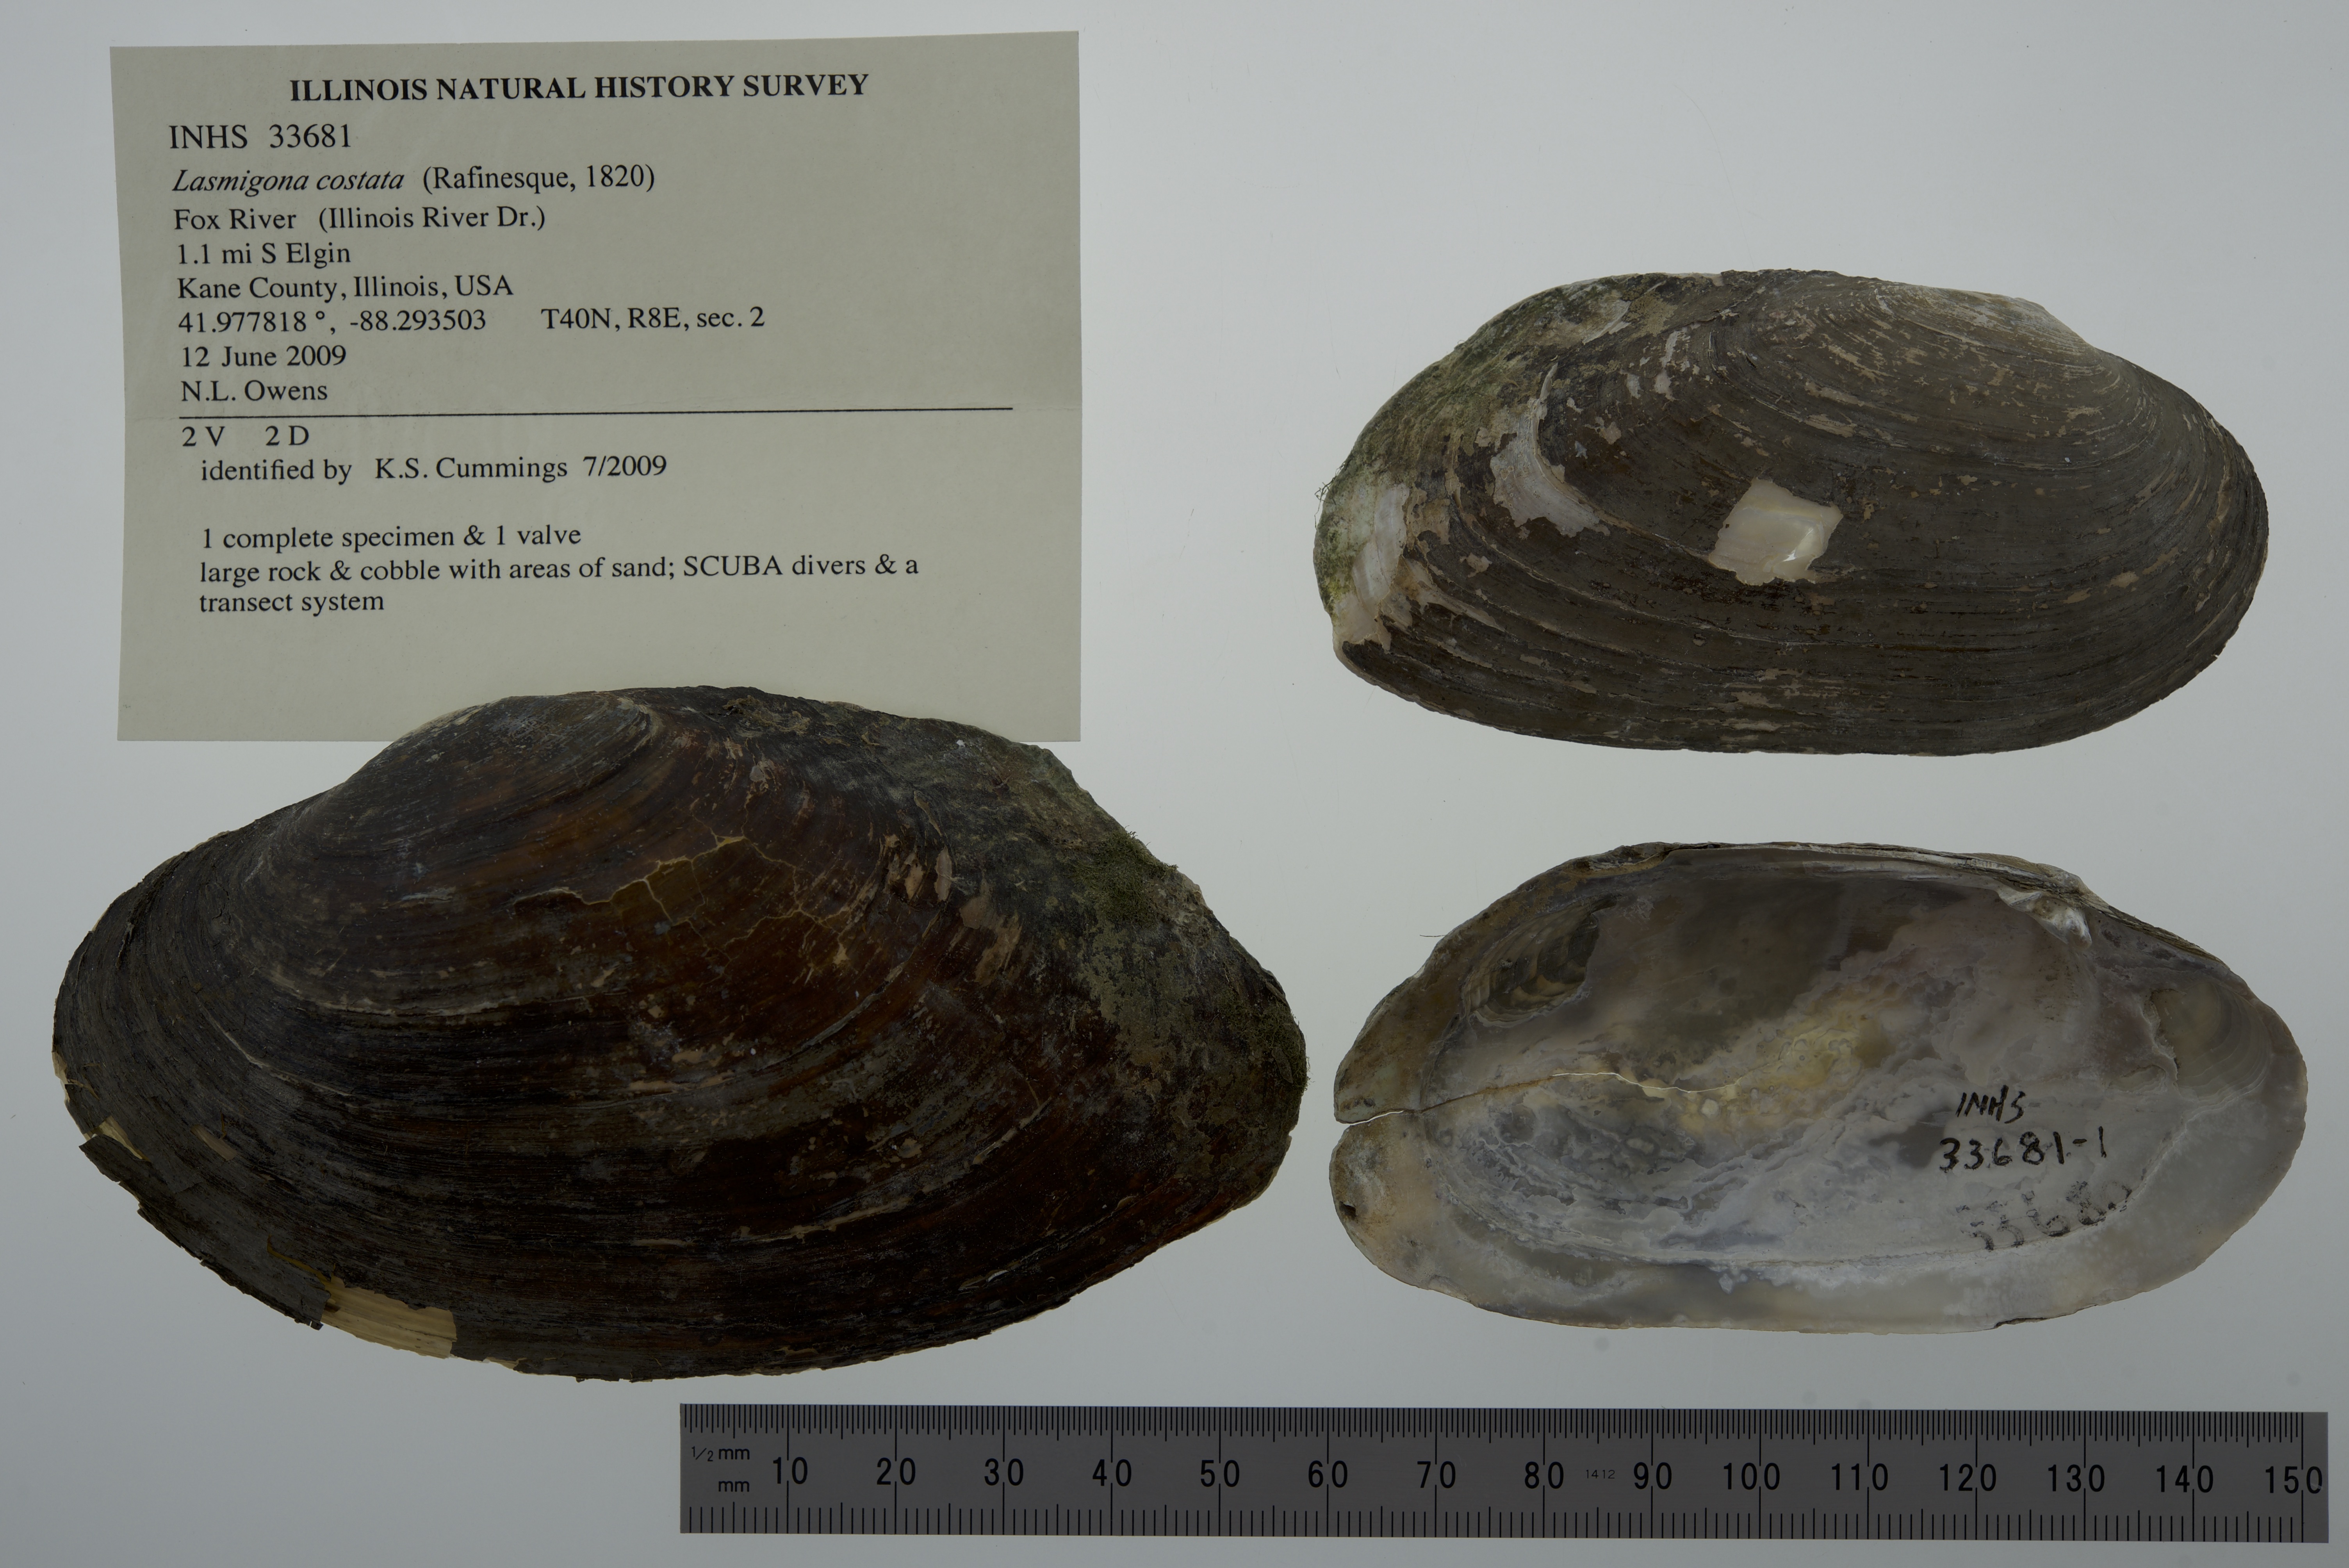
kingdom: Animalia
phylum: Mollusca
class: Bivalvia
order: Unionida
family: Unionidae
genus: Lasmigona
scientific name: Lasmigona costata
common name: Flutedshell
